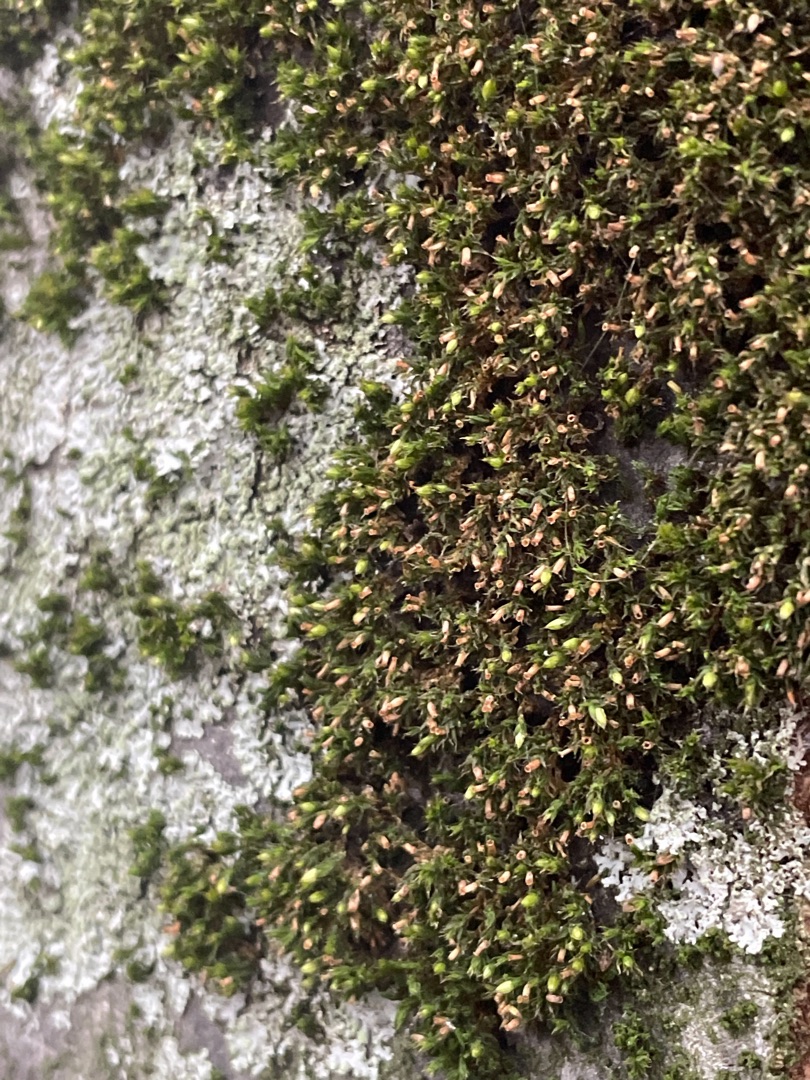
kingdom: Plantae
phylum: Bryophyta
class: Bryopsida
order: Orthotrichales
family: Orthotrichaceae
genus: Orthotrichum
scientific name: Orthotrichum diaphanum
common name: Hårspidset furehætte
